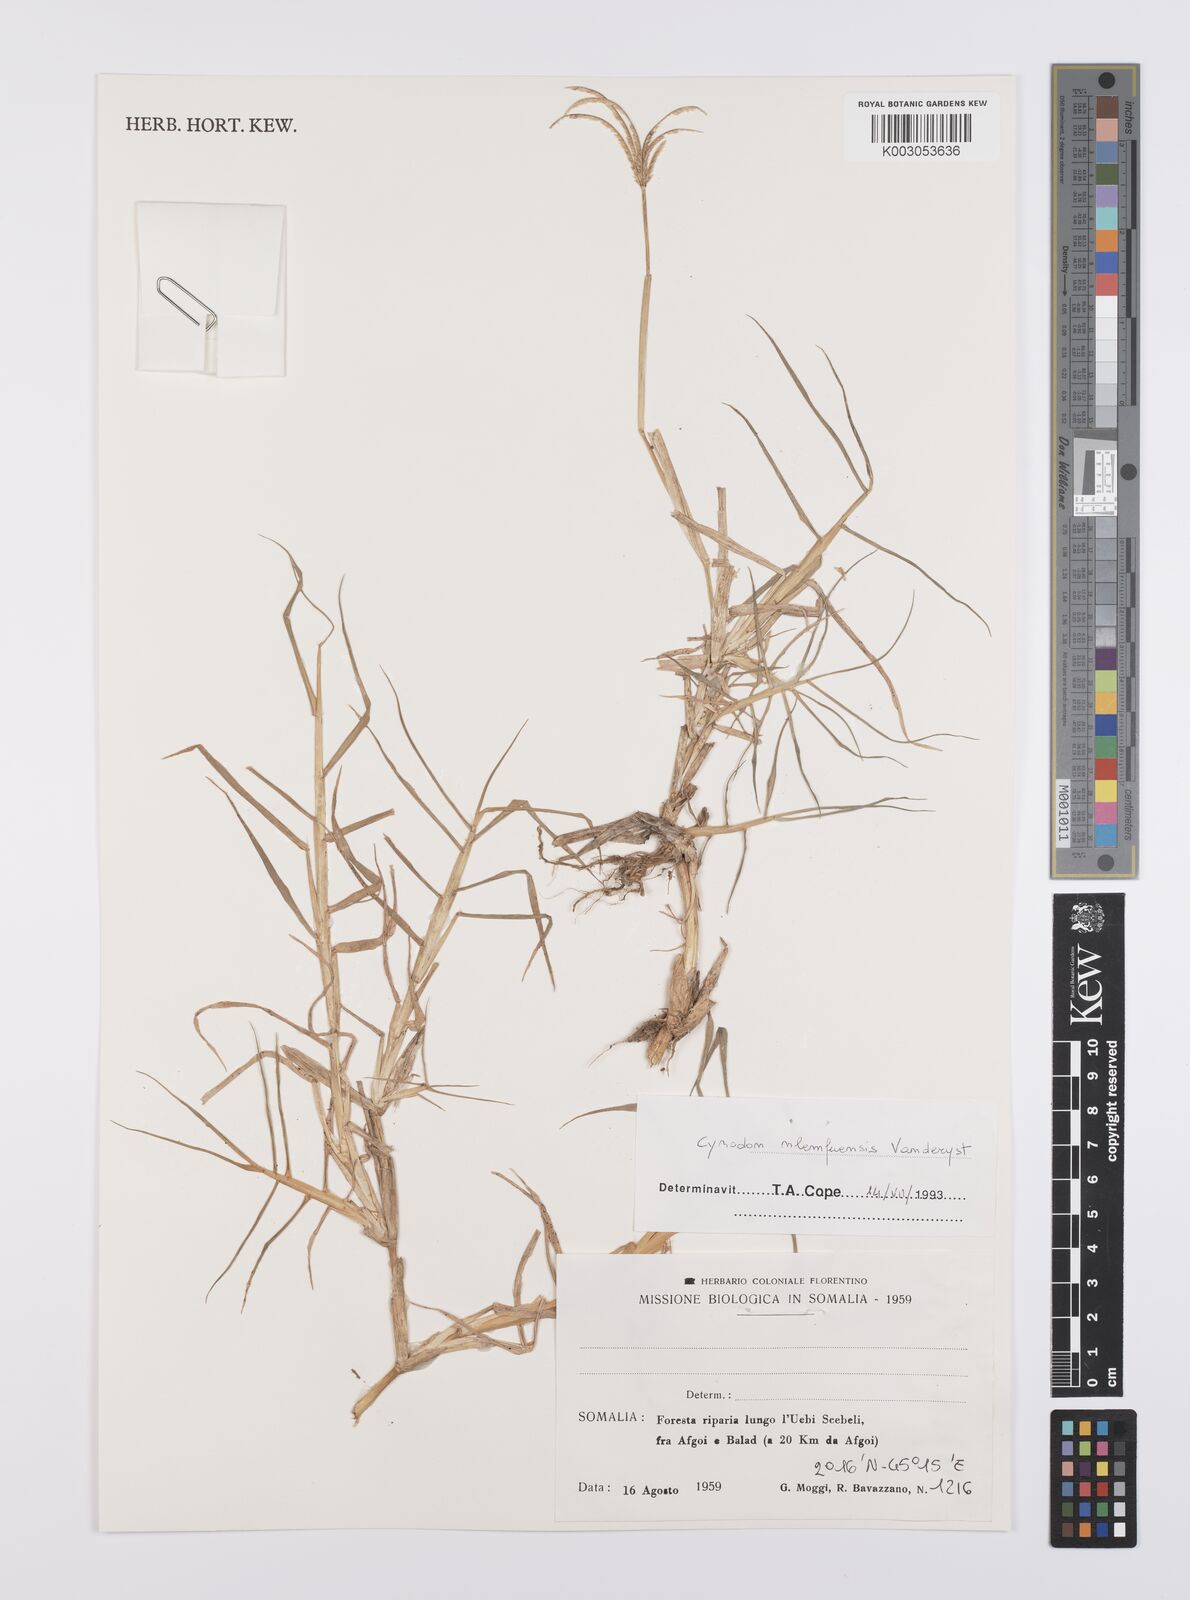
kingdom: Plantae
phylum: Tracheophyta
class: Liliopsida
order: Poales
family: Poaceae
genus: Cynodon
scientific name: Cynodon nlemfuensis
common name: African bermudagrass
